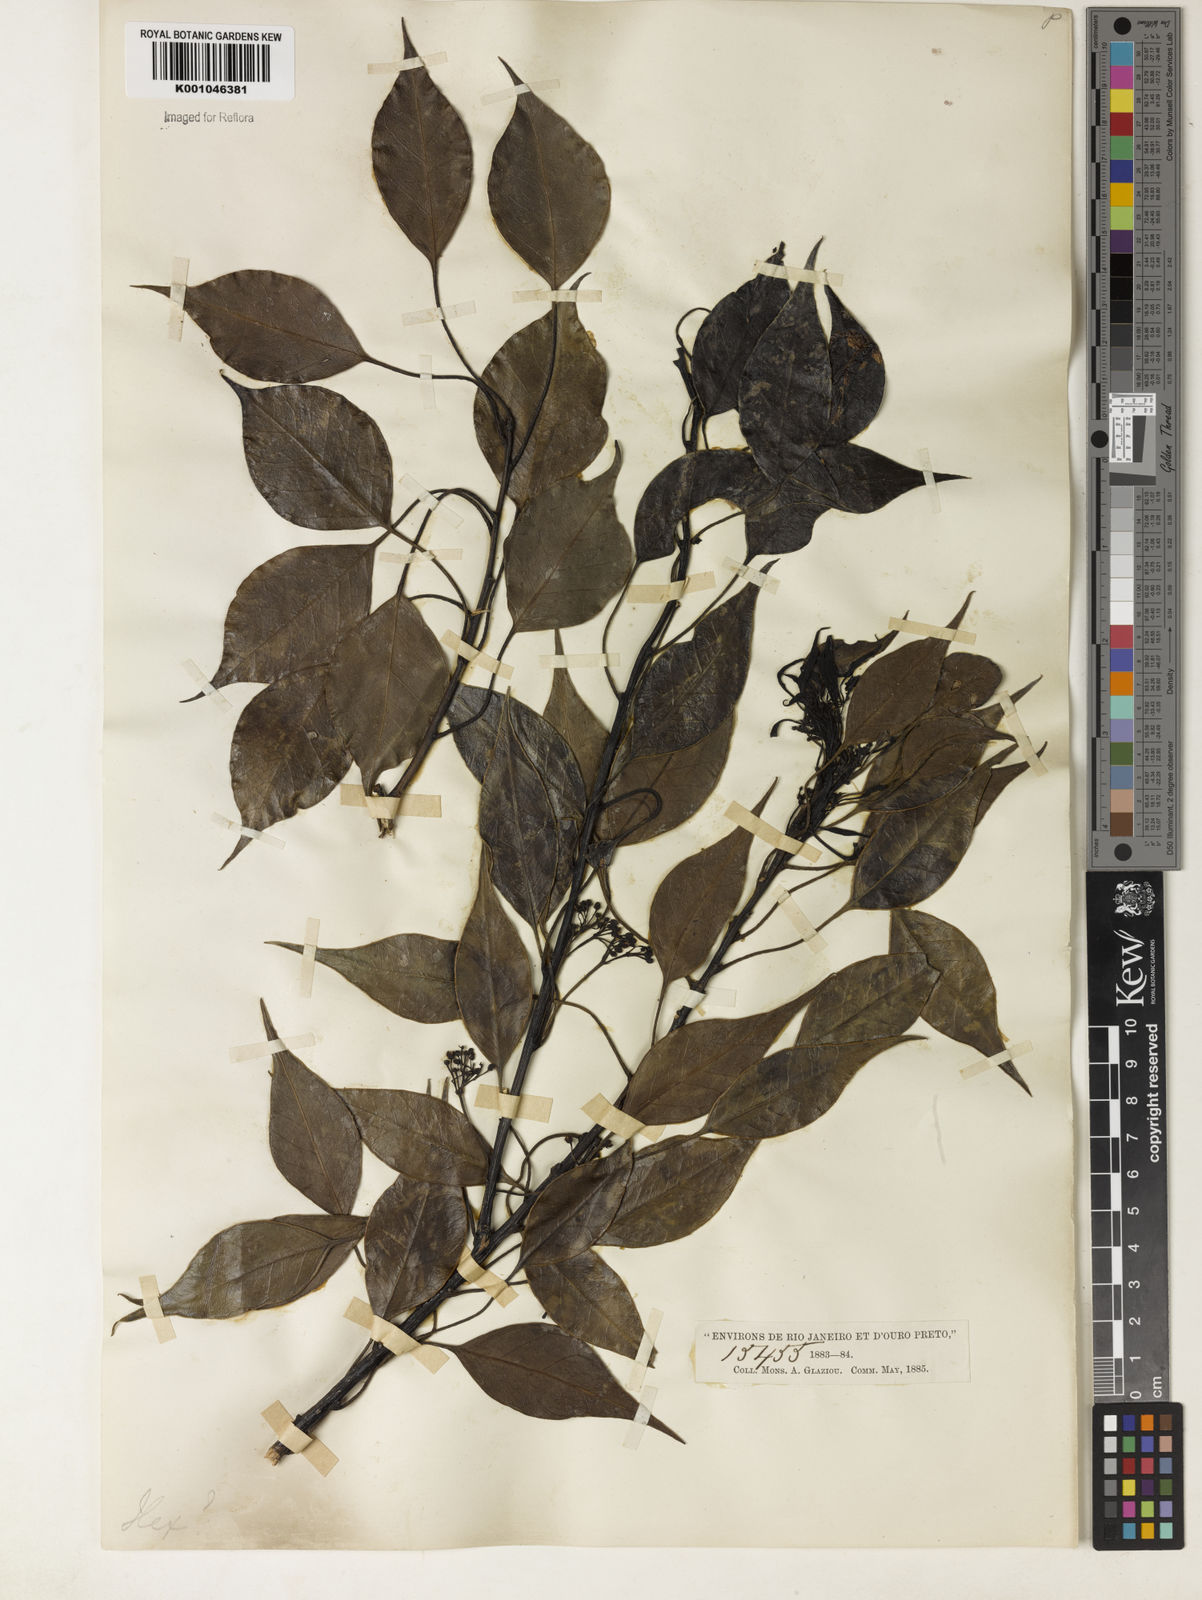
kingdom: Plantae
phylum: Tracheophyta
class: Magnoliopsida
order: Aquifoliales
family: Aquifoliaceae
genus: Ilex
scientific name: Ilex loranthoides
